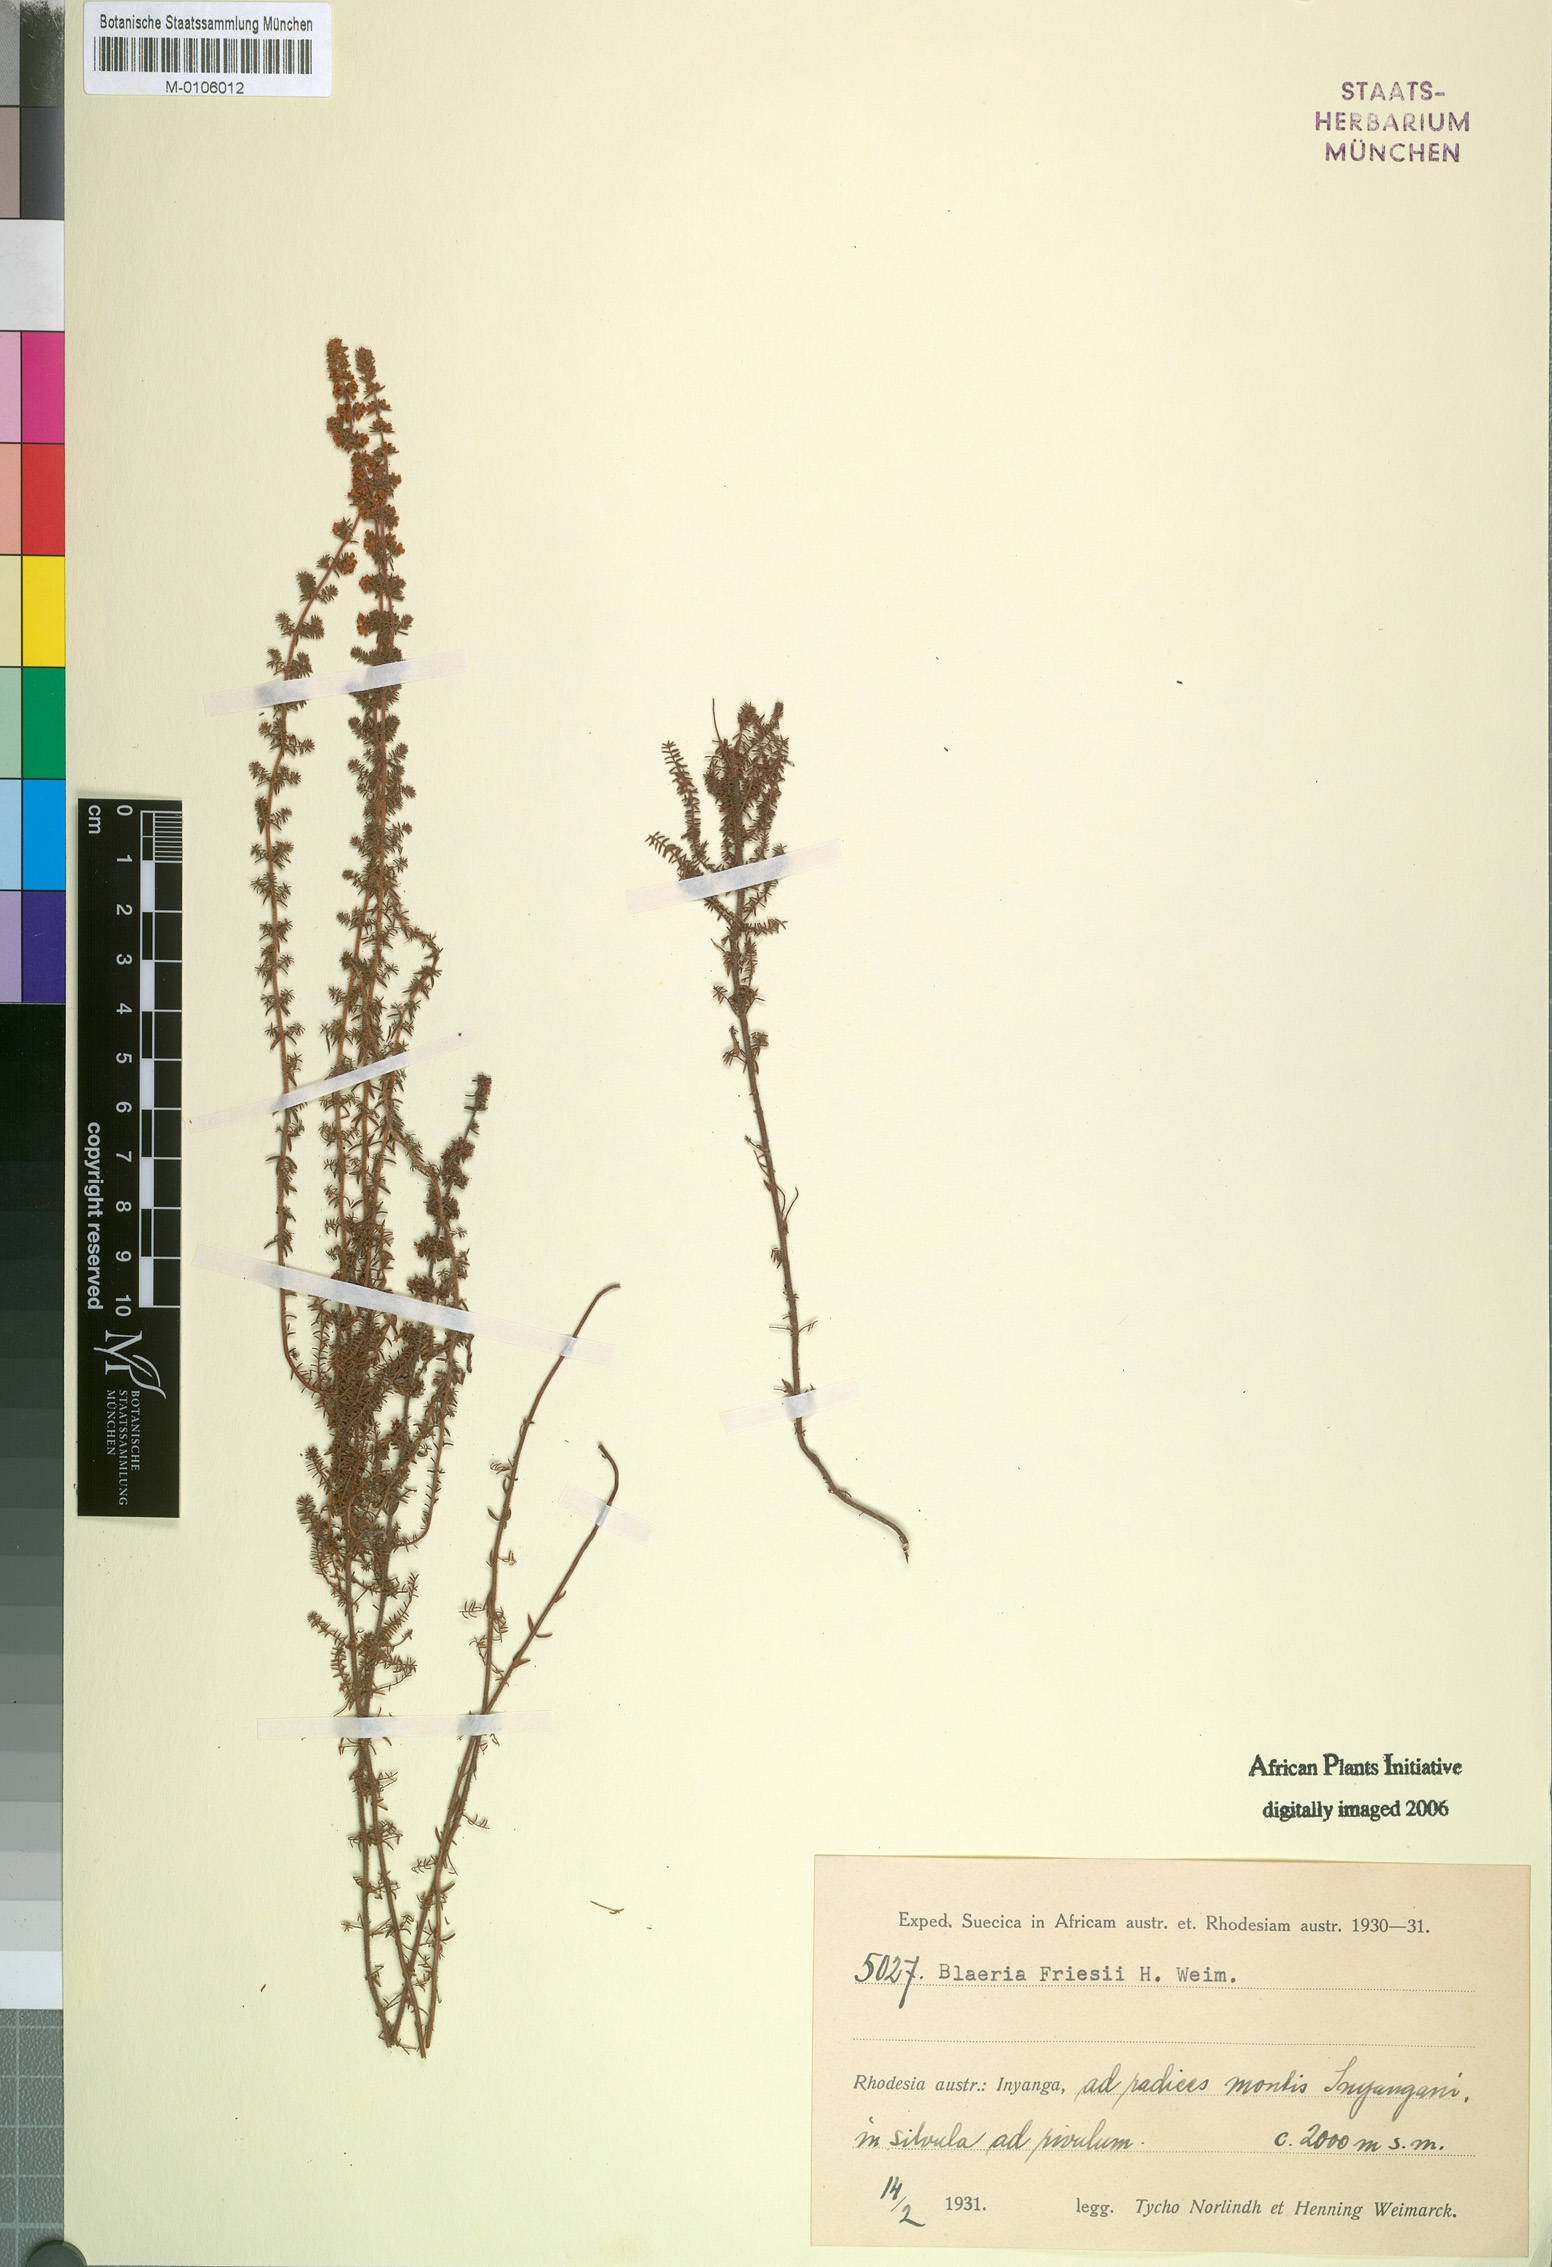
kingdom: Plantae
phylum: Tracheophyta
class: Magnoliopsida
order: Ericales
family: Ericaceae
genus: Erica
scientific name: Erica silvatica
